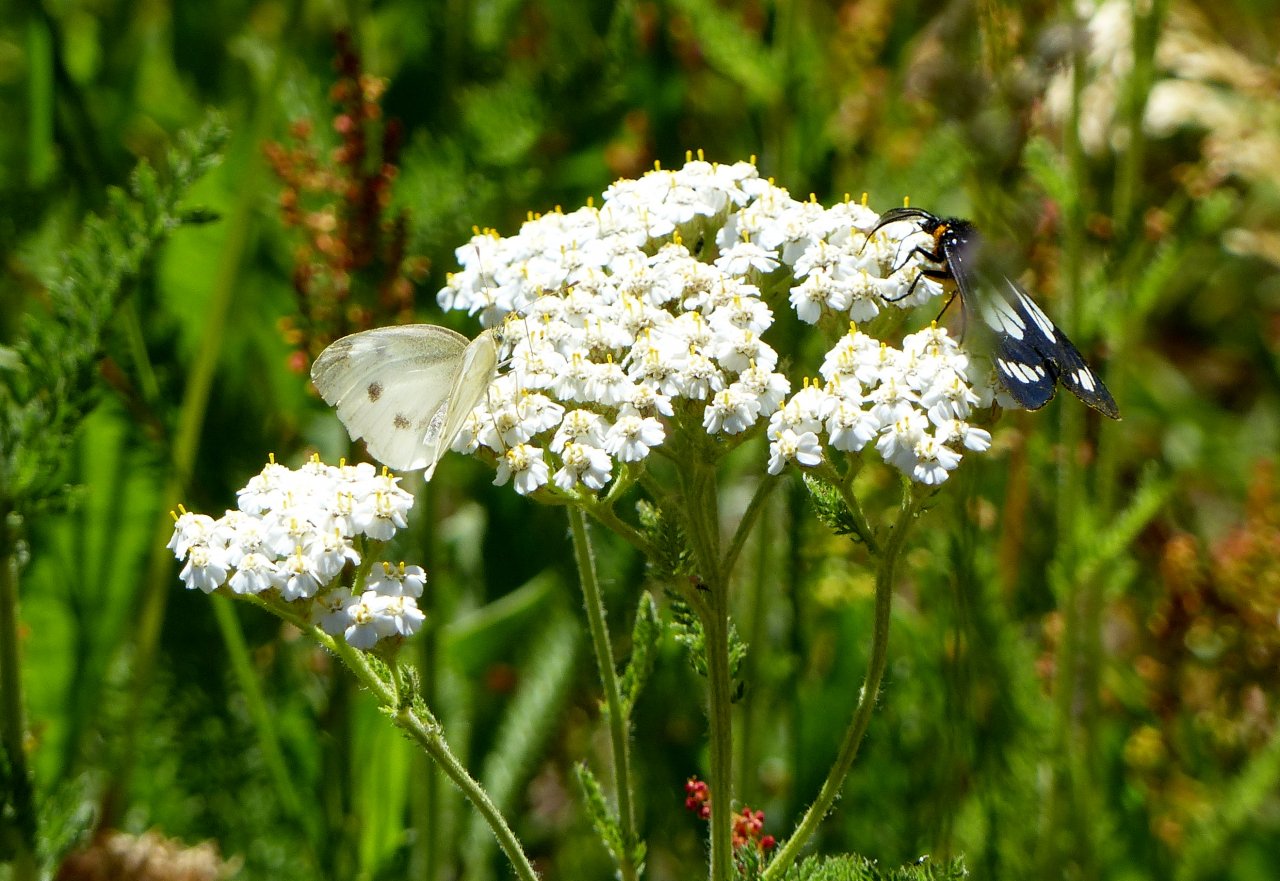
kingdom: Animalia
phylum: Arthropoda
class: Insecta
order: Lepidoptera
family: Pieridae
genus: Pieris
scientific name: Pieris rapae
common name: Cabbage White
